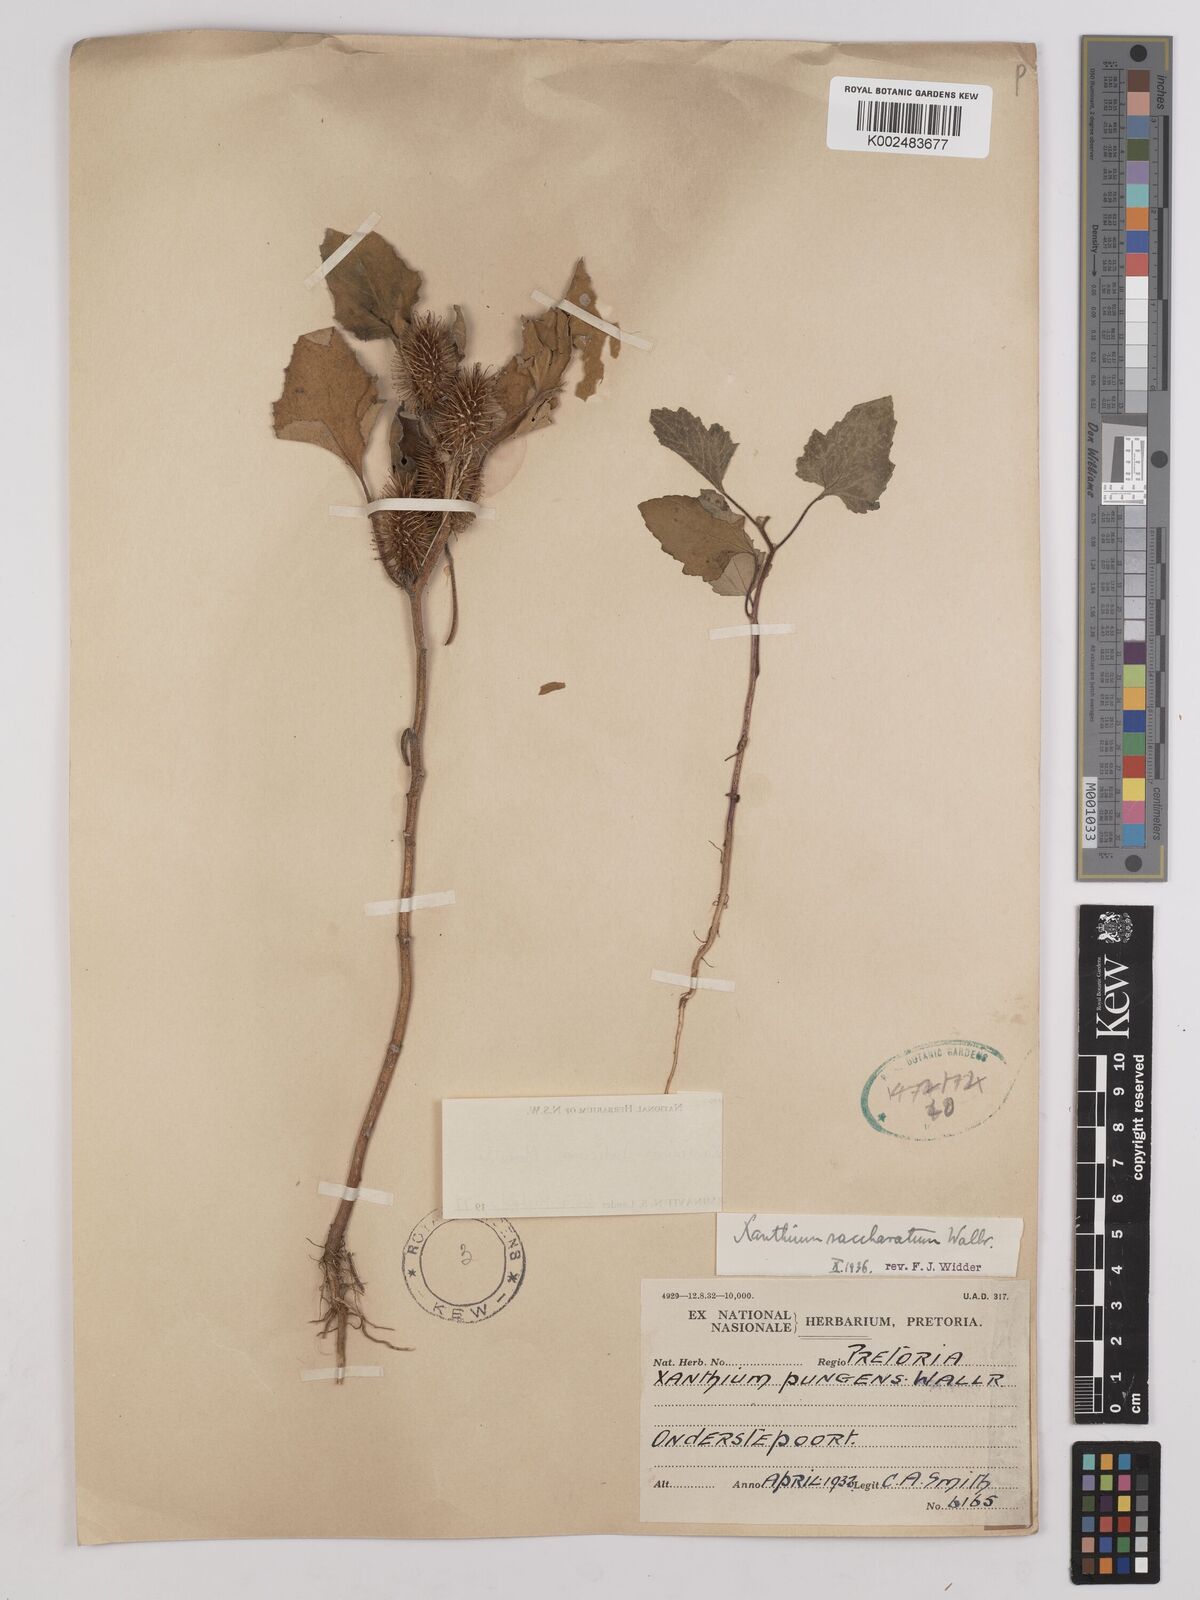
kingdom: Plantae
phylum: Tracheophyta
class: Magnoliopsida
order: Asterales
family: Asteraceae
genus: Xanthium
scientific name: Xanthium occidentale
